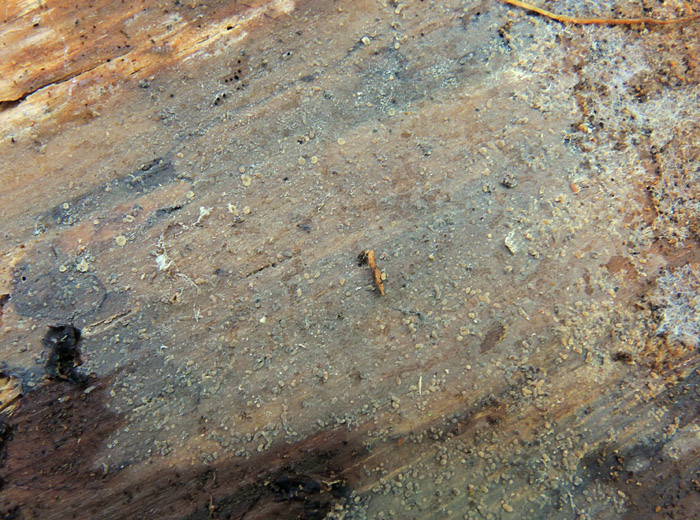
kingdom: Fungi
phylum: Basidiomycota
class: Agaricomycetes
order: Agaricales
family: Radulomycetaceae
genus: Aphanobasidium
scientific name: Aphanobasidium pseudotsugae
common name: tynd naftalinskind
